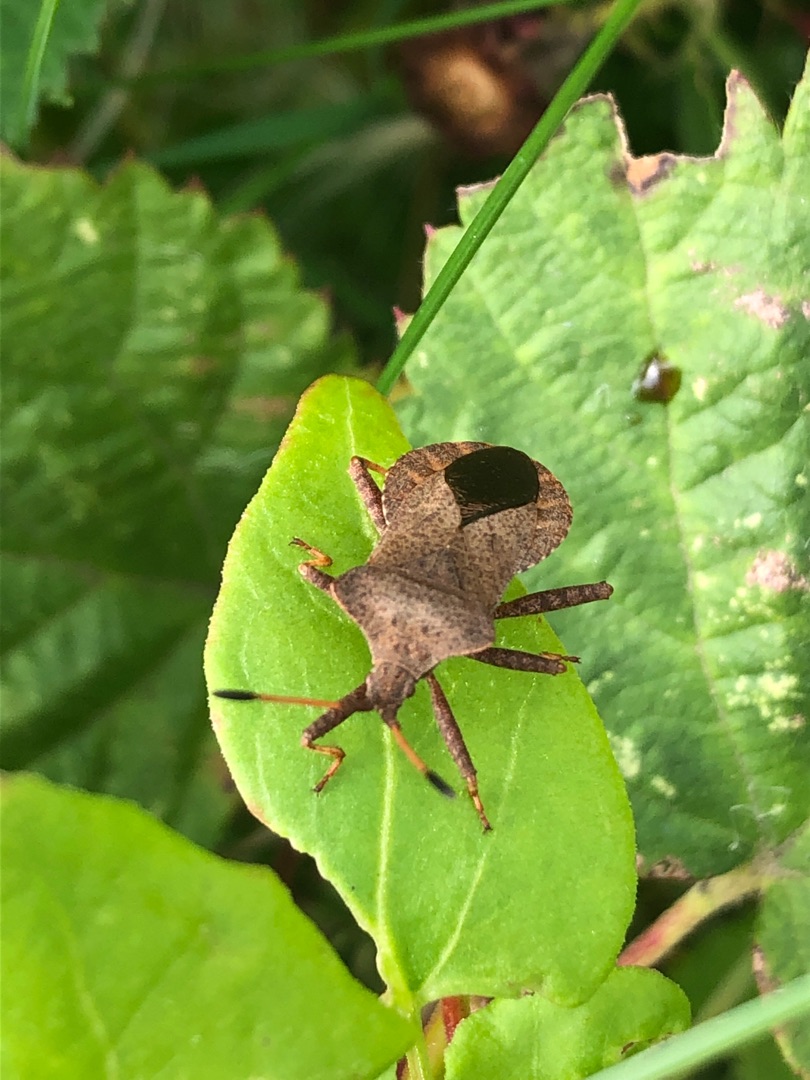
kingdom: Animalia
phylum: Arthropoda
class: Insecta
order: Hemiptera
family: Coreidae
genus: Coreus
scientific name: Coreus marginatus
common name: Skræppetæge
